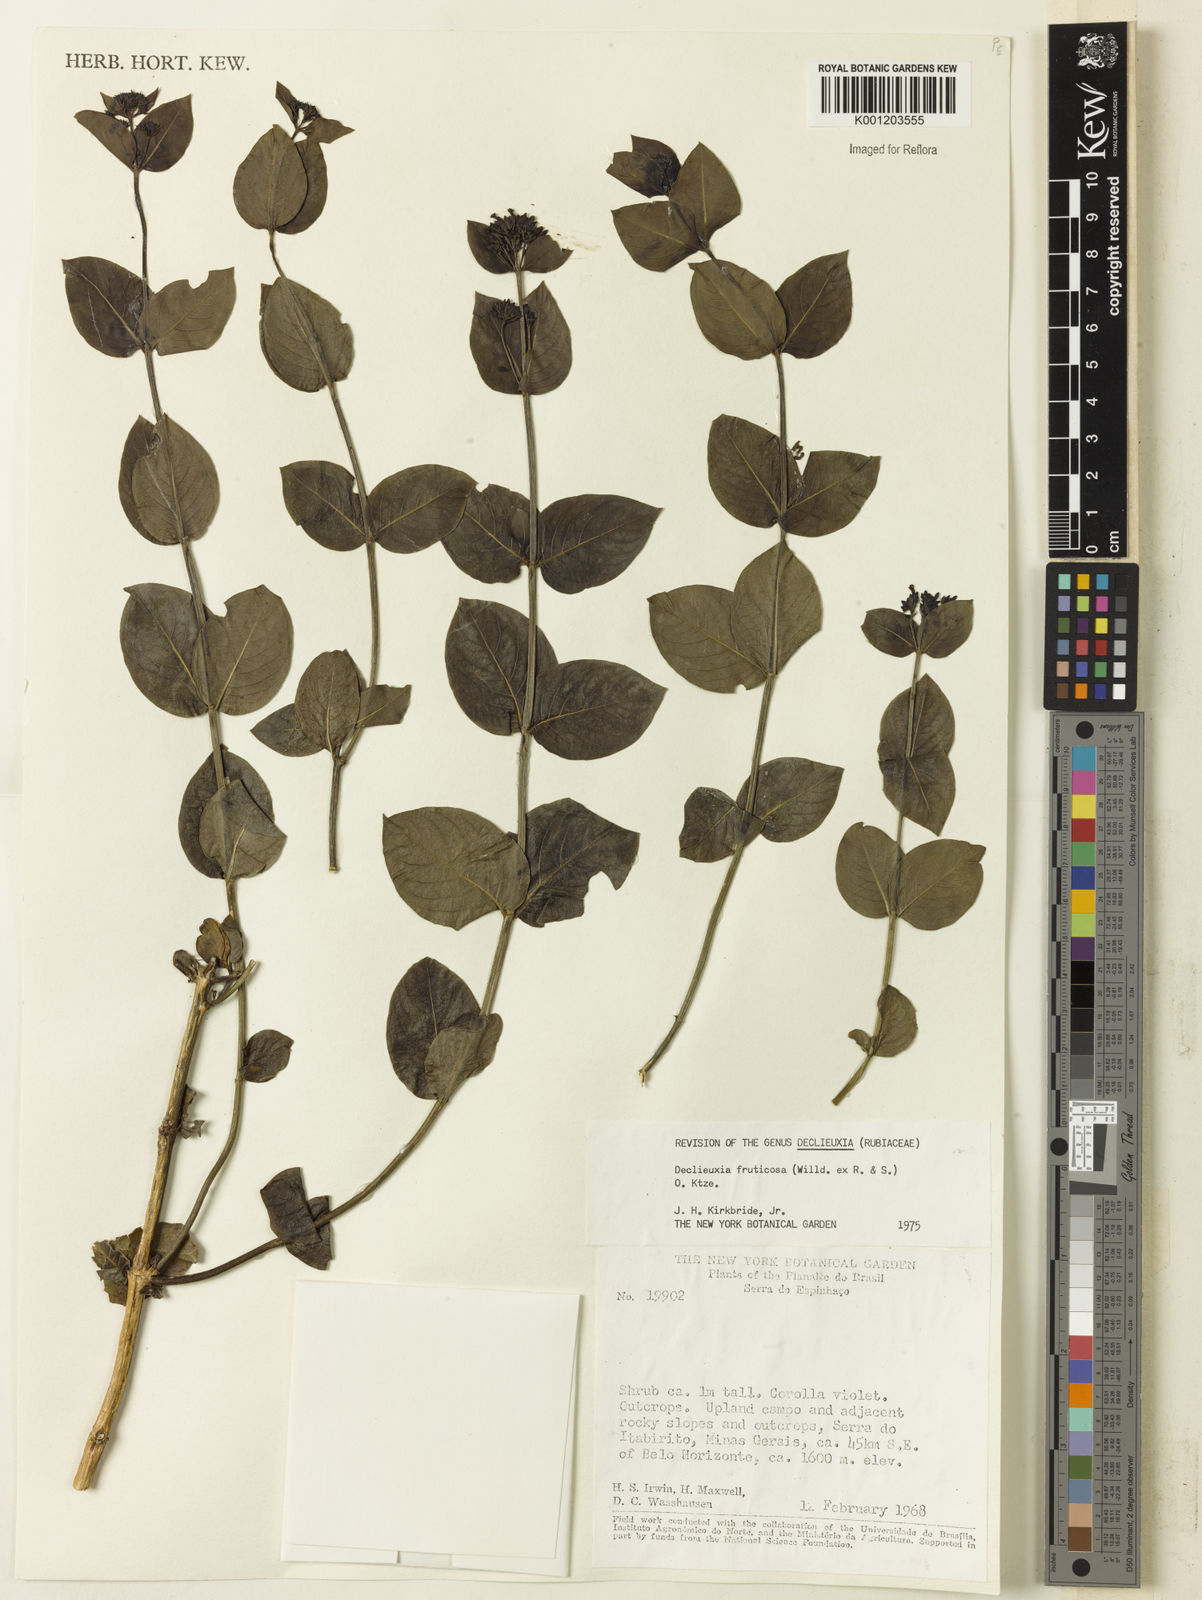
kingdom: Plantae
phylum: Tracheophyta
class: Magnoliopsida
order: Gentianales
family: Rubiaceae
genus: Declieuxia
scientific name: Declieuxia fruticosa
